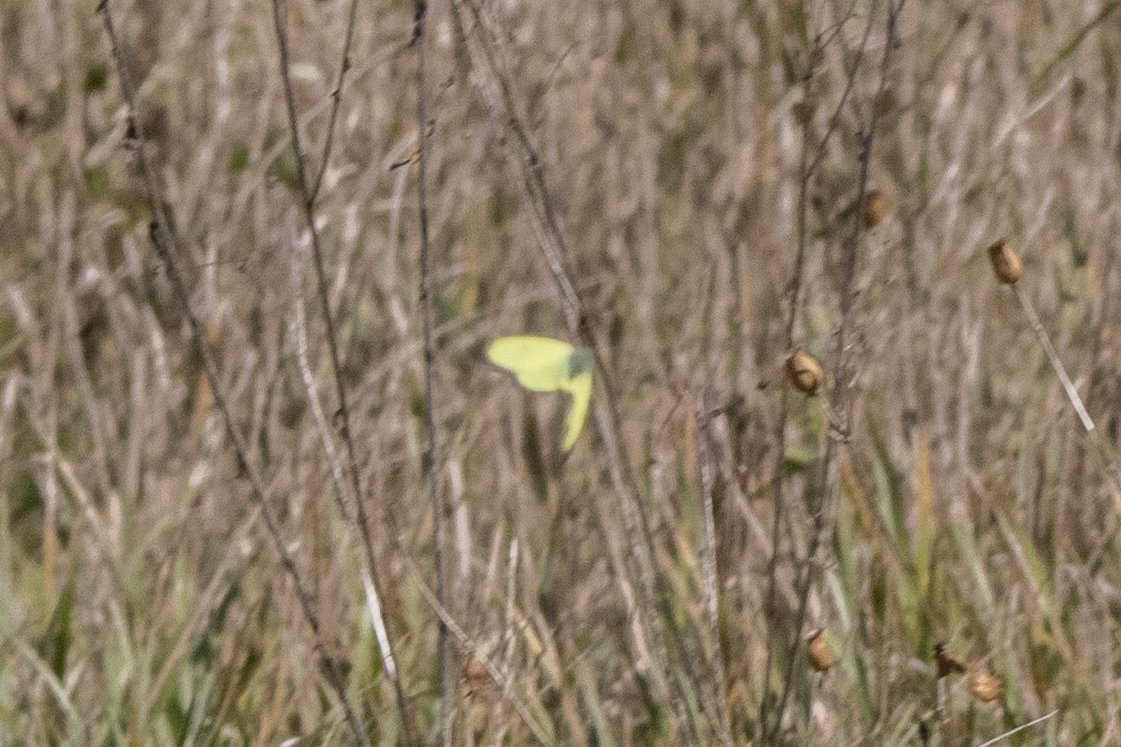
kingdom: Animalia
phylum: Arthropoda
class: Insecta
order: Lepidoptera
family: Pieridae
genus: Colias
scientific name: Colias philodice
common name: Clouded Sulphur
